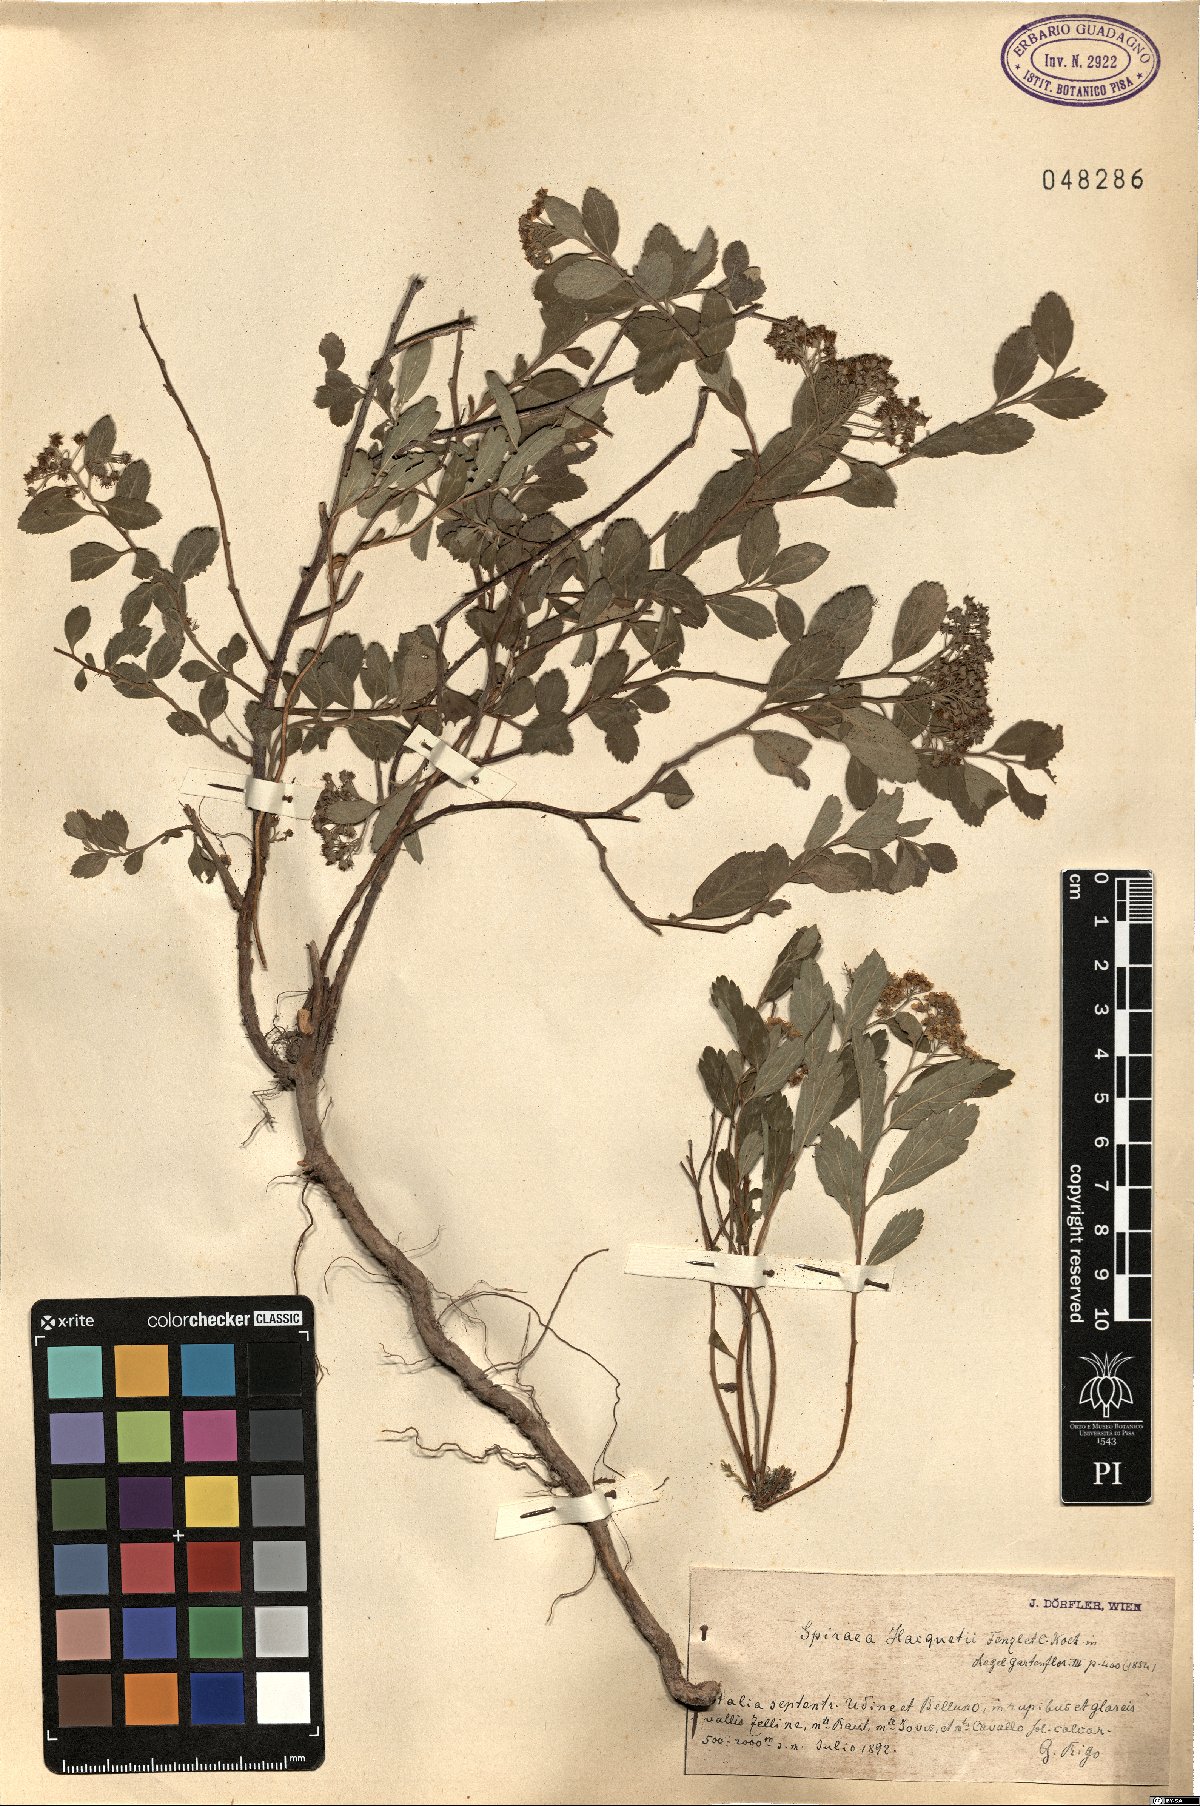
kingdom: Plantae
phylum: Tracheophyta
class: Magnoliopsida
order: Rosales
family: Rosaceae
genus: Spiraea
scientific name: Spiraea decumbens
